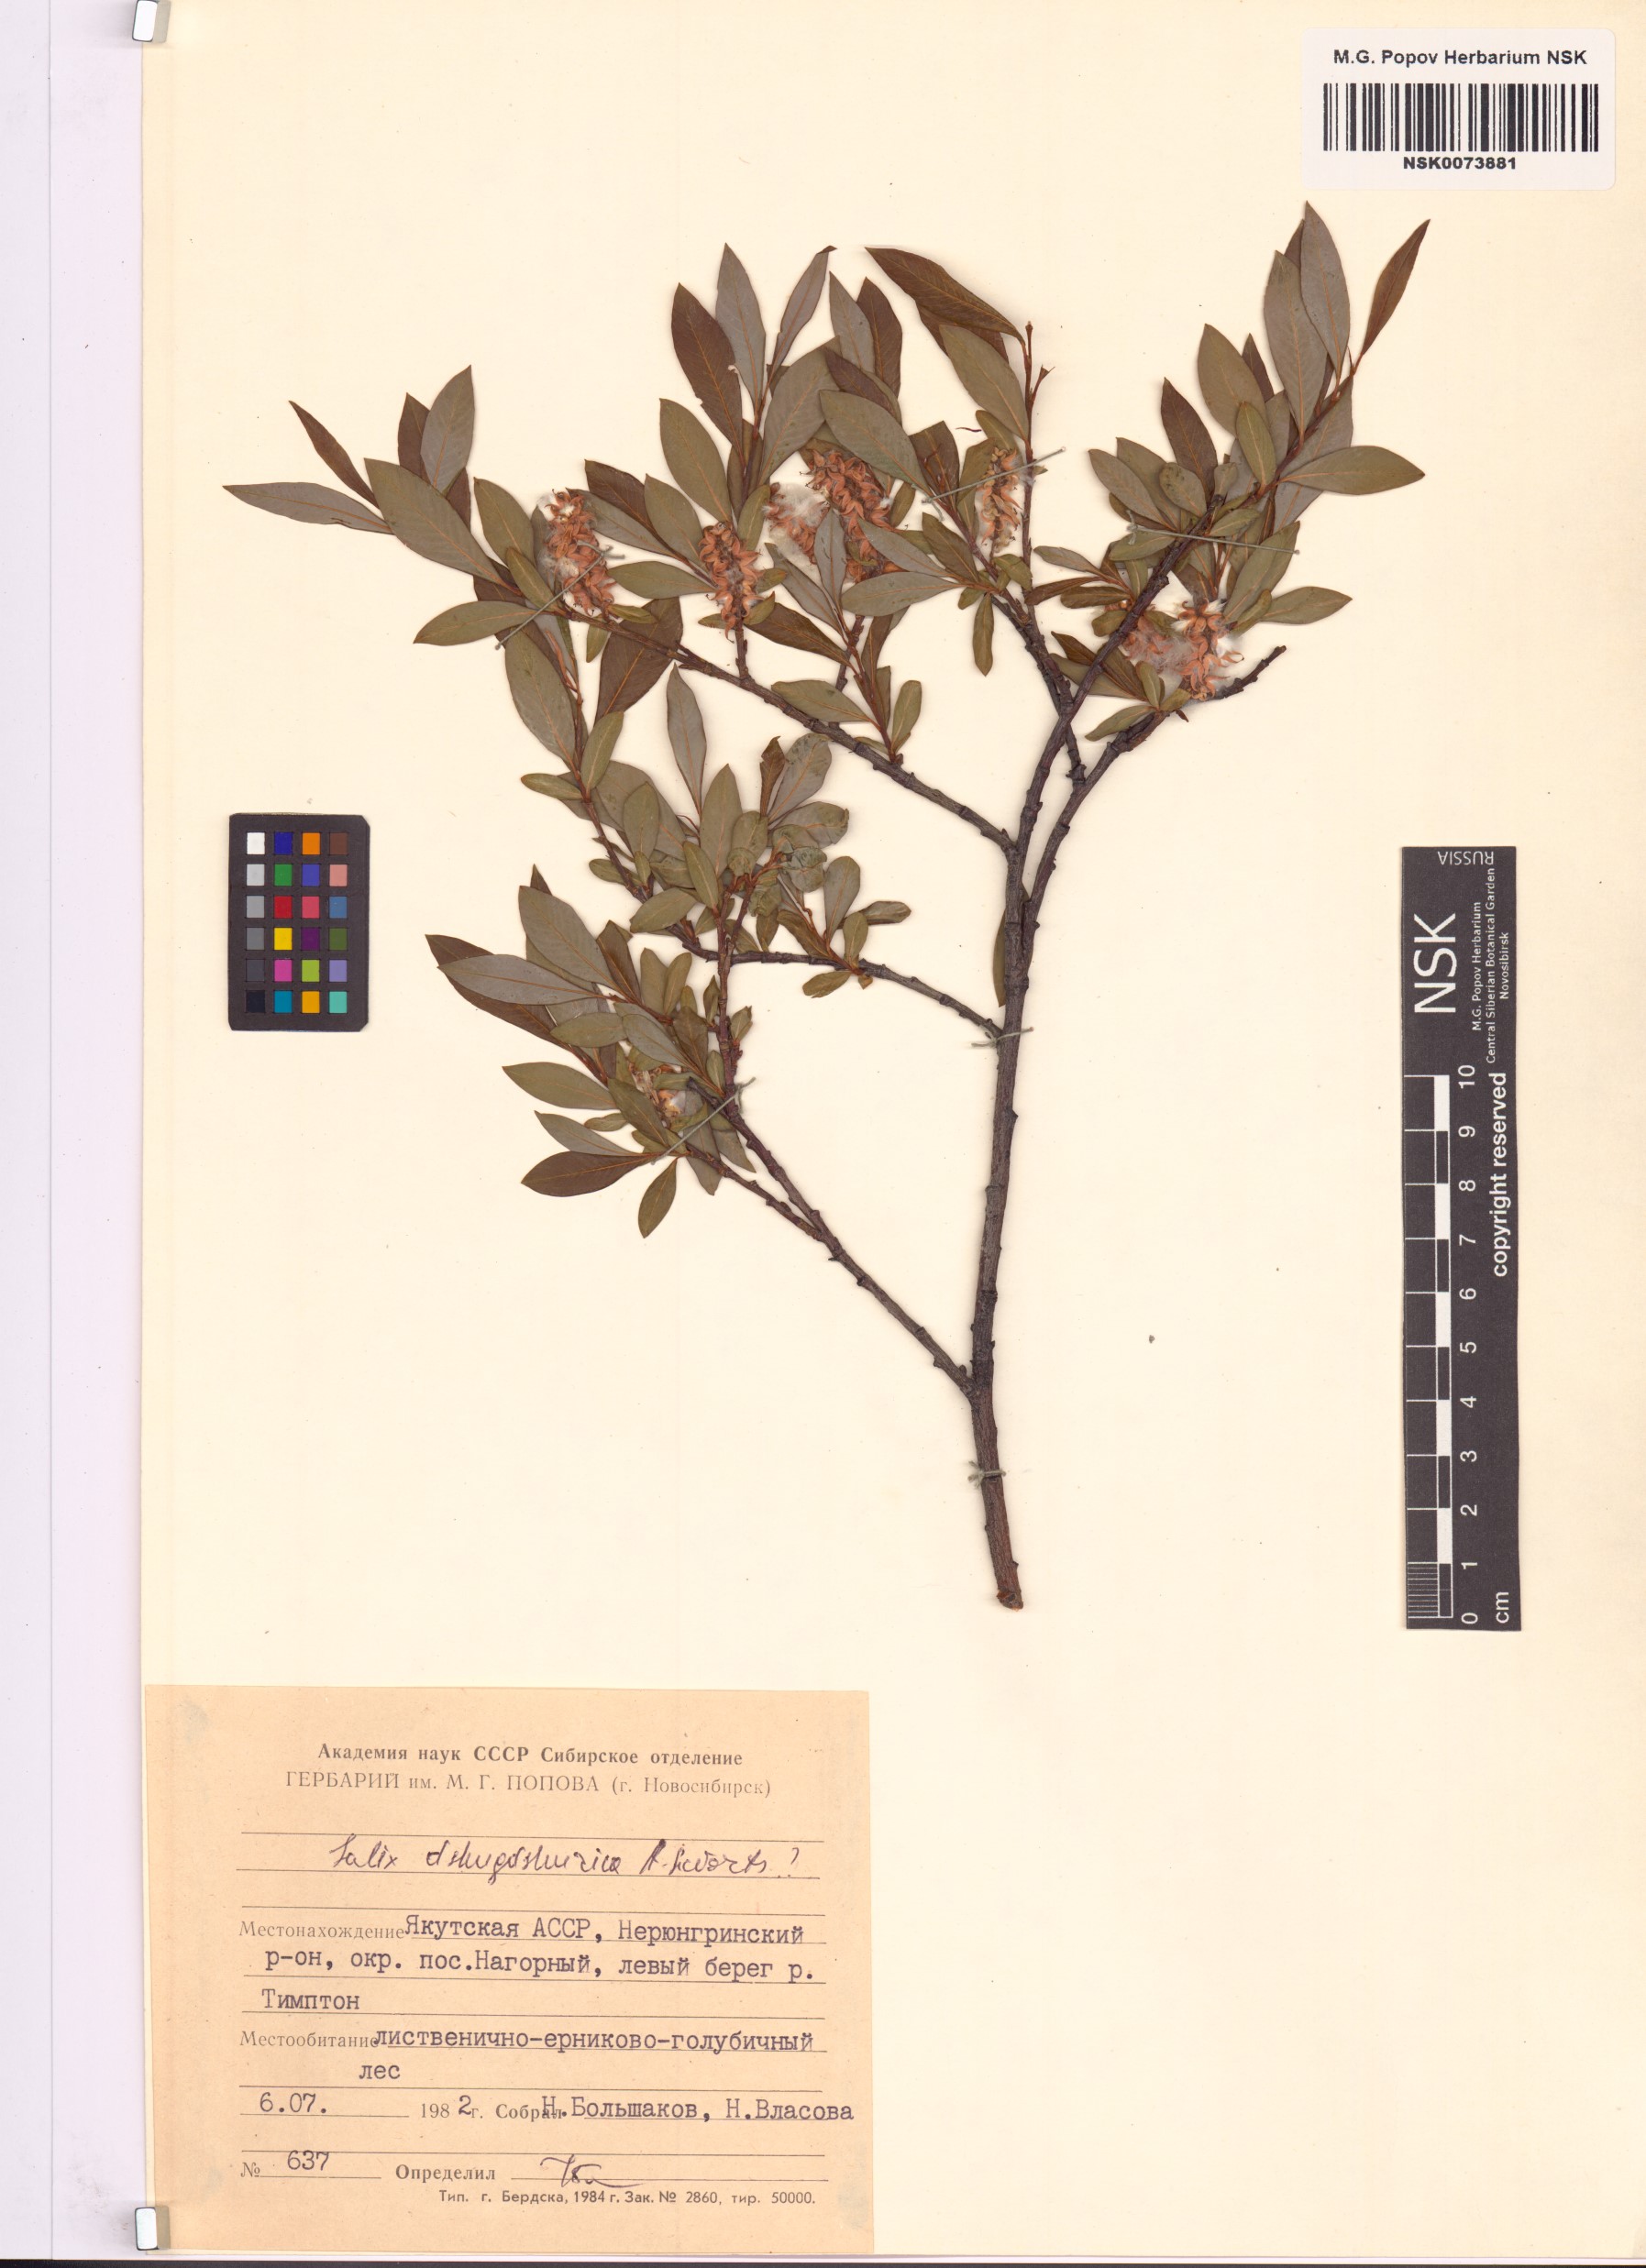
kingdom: Plantae
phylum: Tracheophyta
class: Magnoliopsida
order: Malpighiales
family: Salicaceae
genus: Salix
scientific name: Salix dshugdshurica
